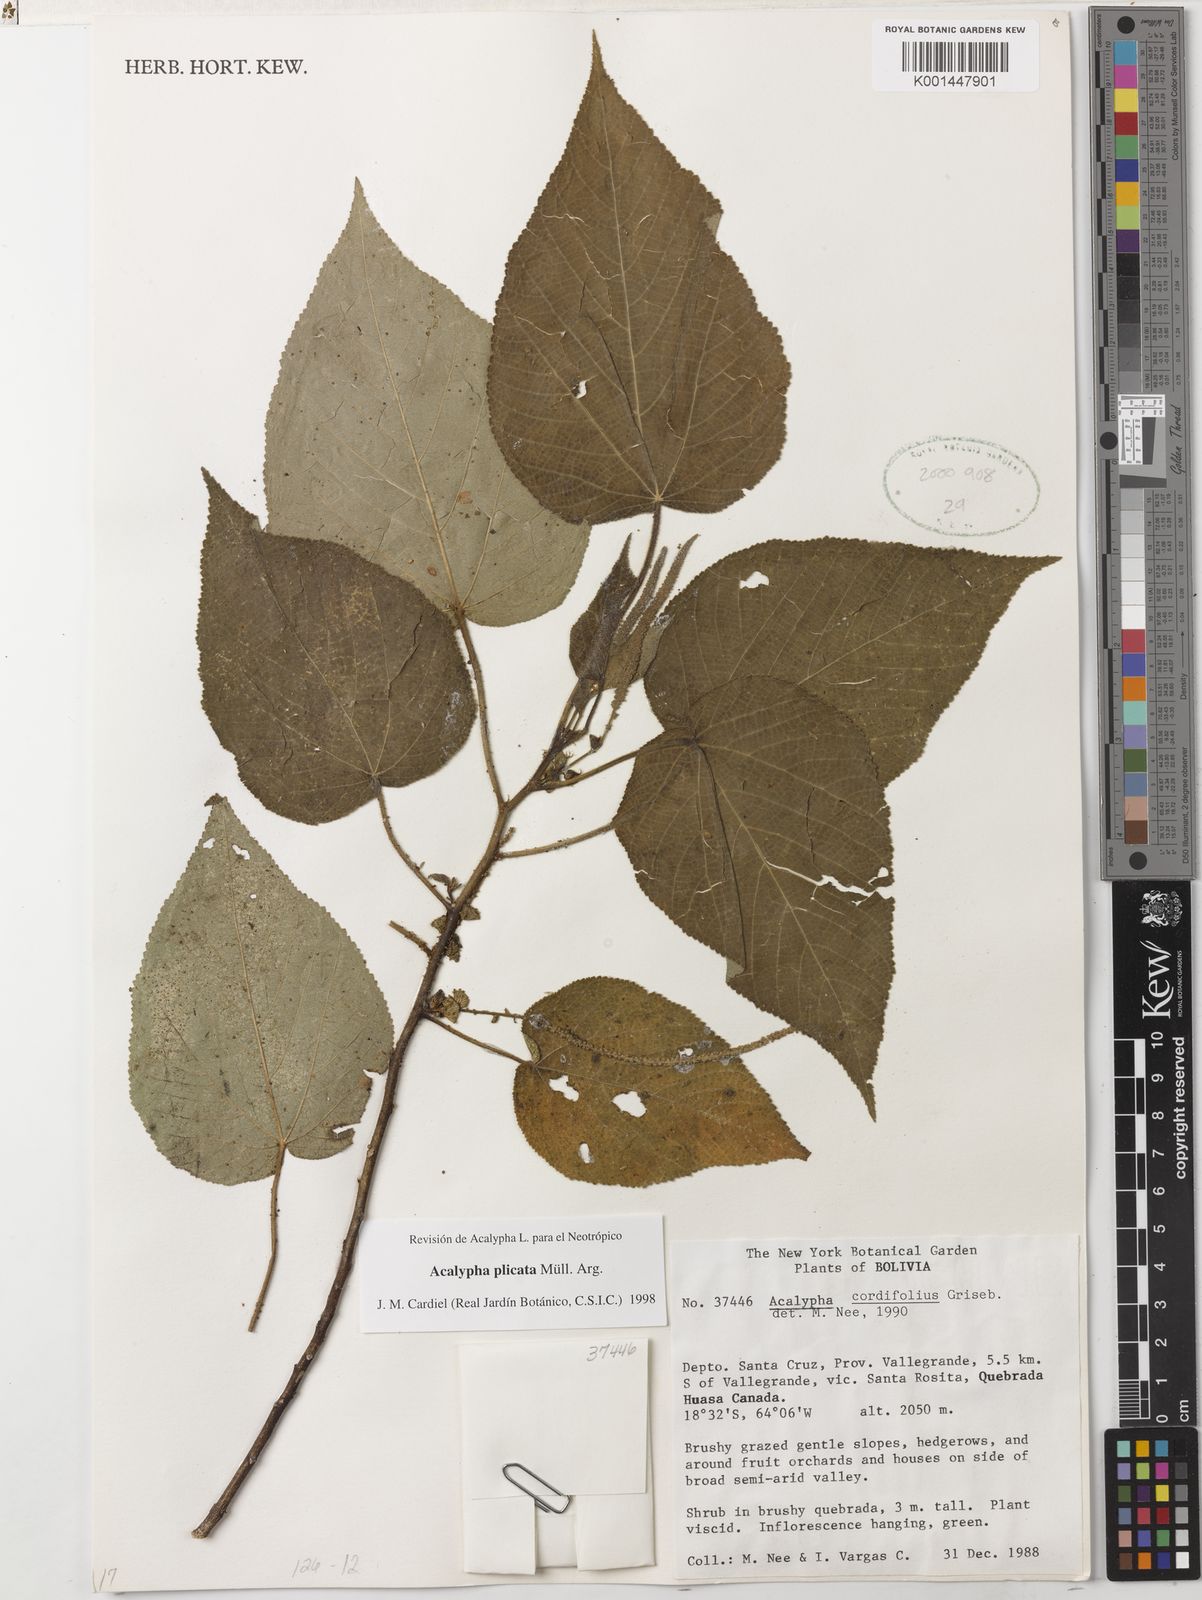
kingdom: Plantae
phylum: Tracheophyta
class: Magnoliopsida
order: Malpighiales
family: Euphorbiaceae
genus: Acalypha
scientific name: Acalypha plicata
